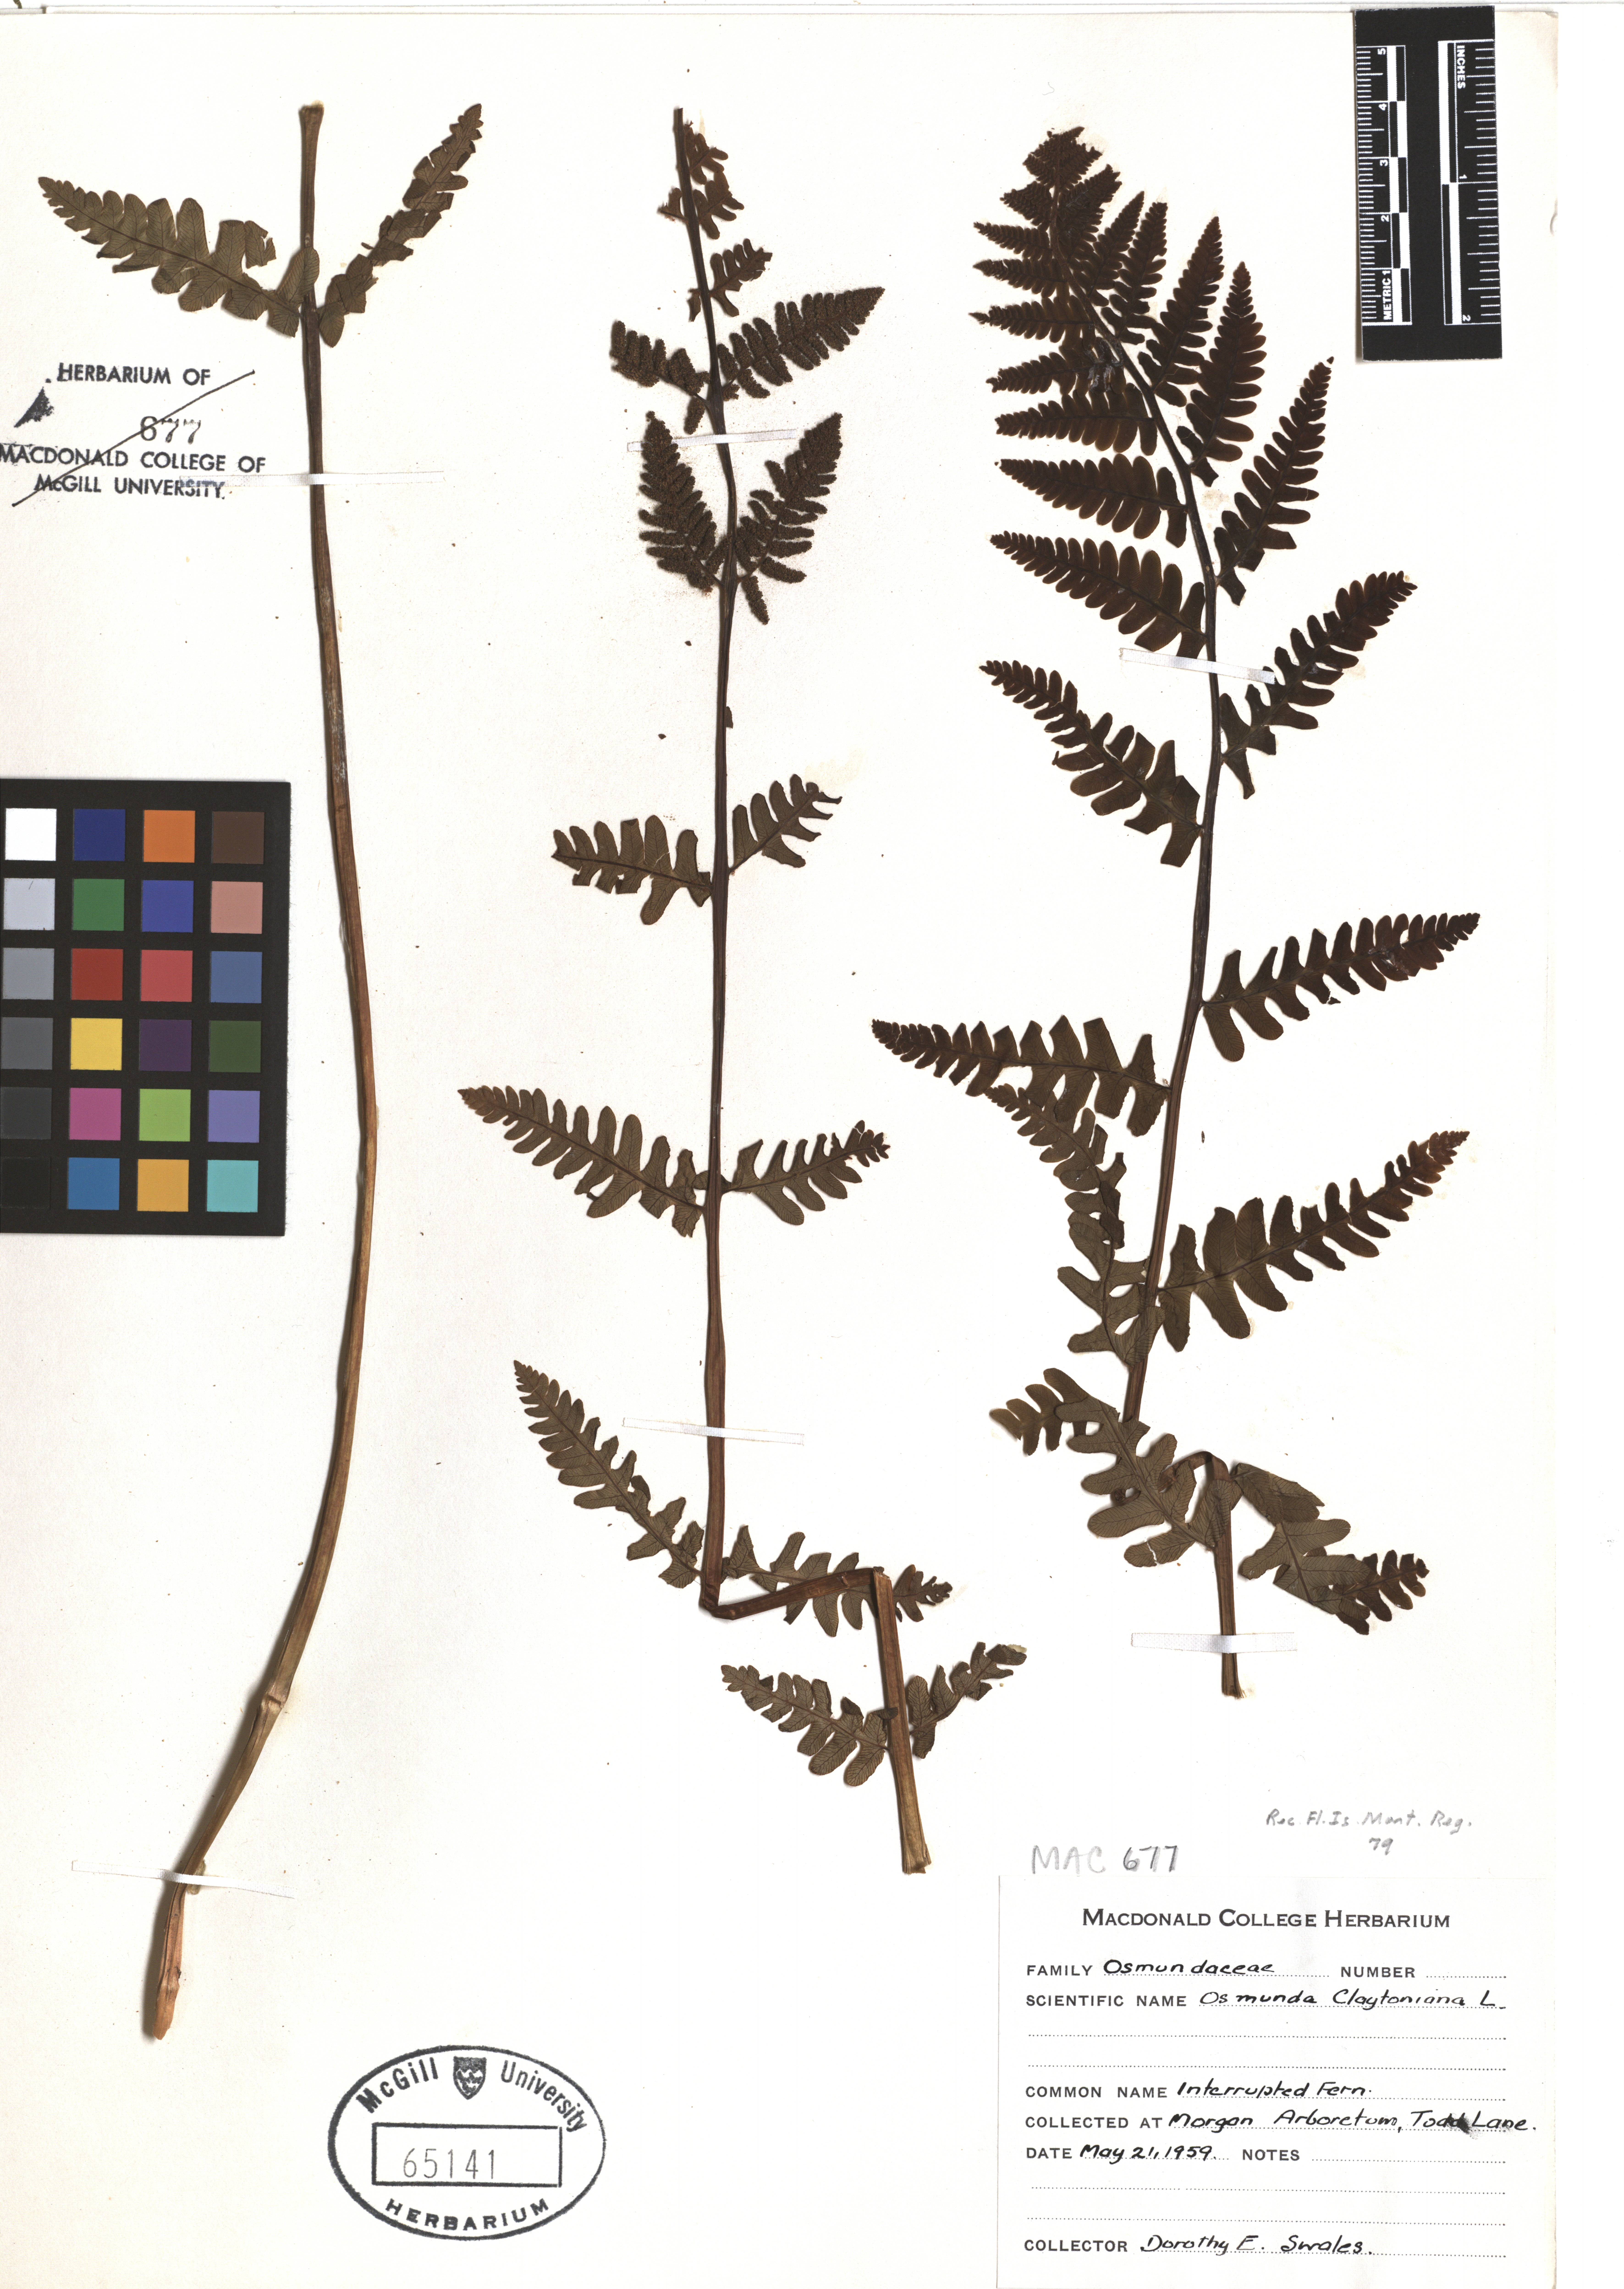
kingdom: Plantae
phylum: Tracheophyta
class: Polypodiopsida
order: Osmundales
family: Osmundaceae
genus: Claytosmunda
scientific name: Claytosmunda claytoniana
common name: Clayton's fern
